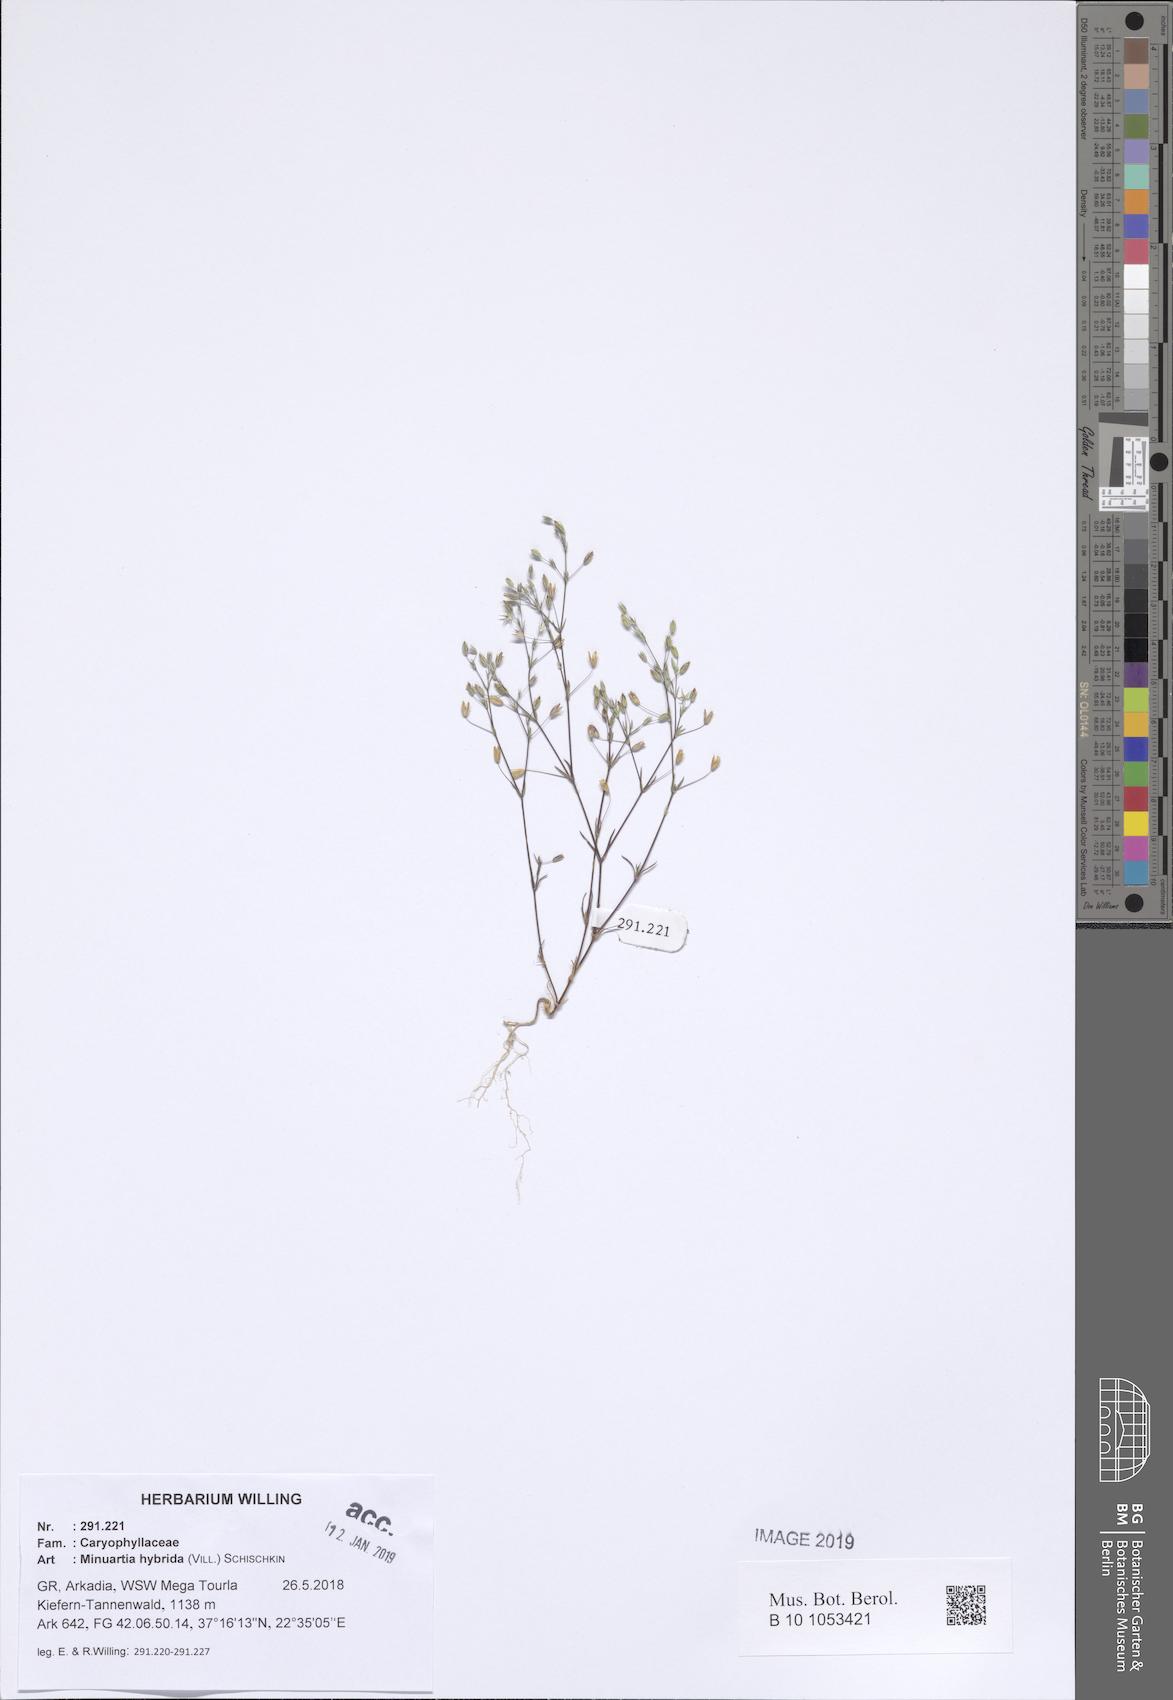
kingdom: Plantae
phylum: Tracheophyta
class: Magnoliopsida
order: Caryophyllales
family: Caryophyllaceae
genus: Sabulina
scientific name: Sabulina tenuifolia
